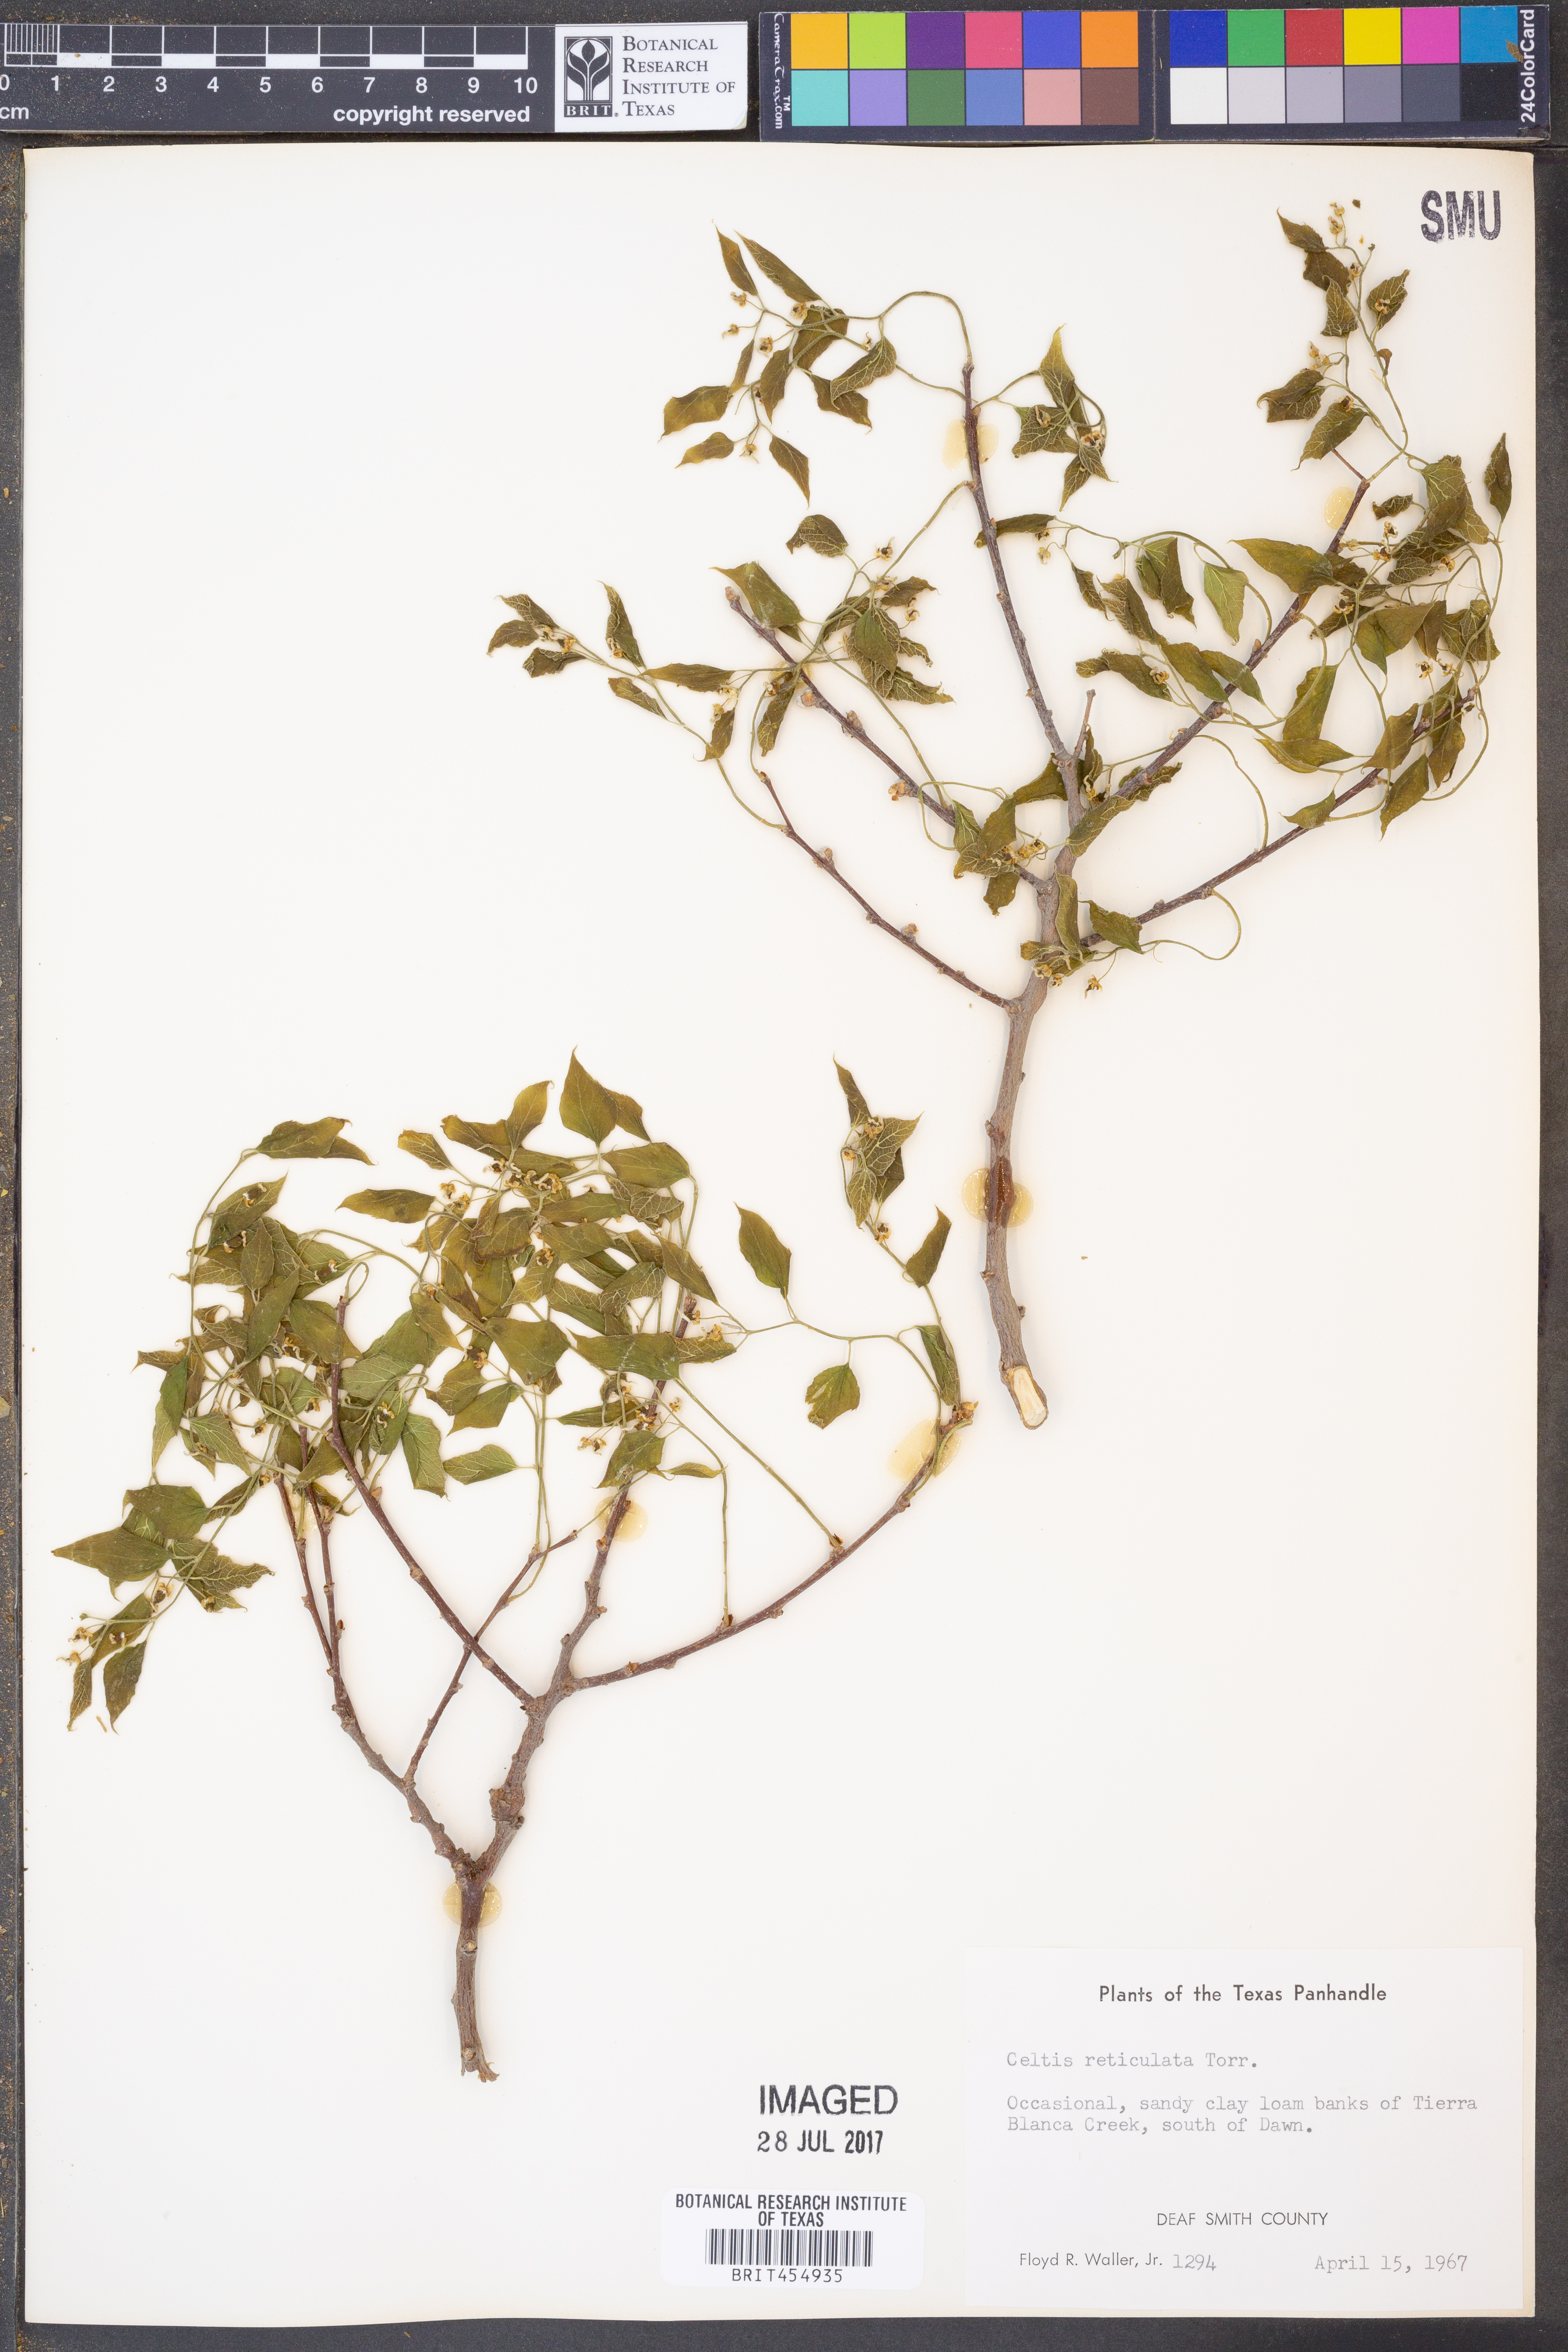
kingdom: Plantae
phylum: Tracheophyta
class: Magnoliopsida
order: Rosales
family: Cannabaceae
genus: Celtis
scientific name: Celtis reticulata
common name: Netleaf hackberry
